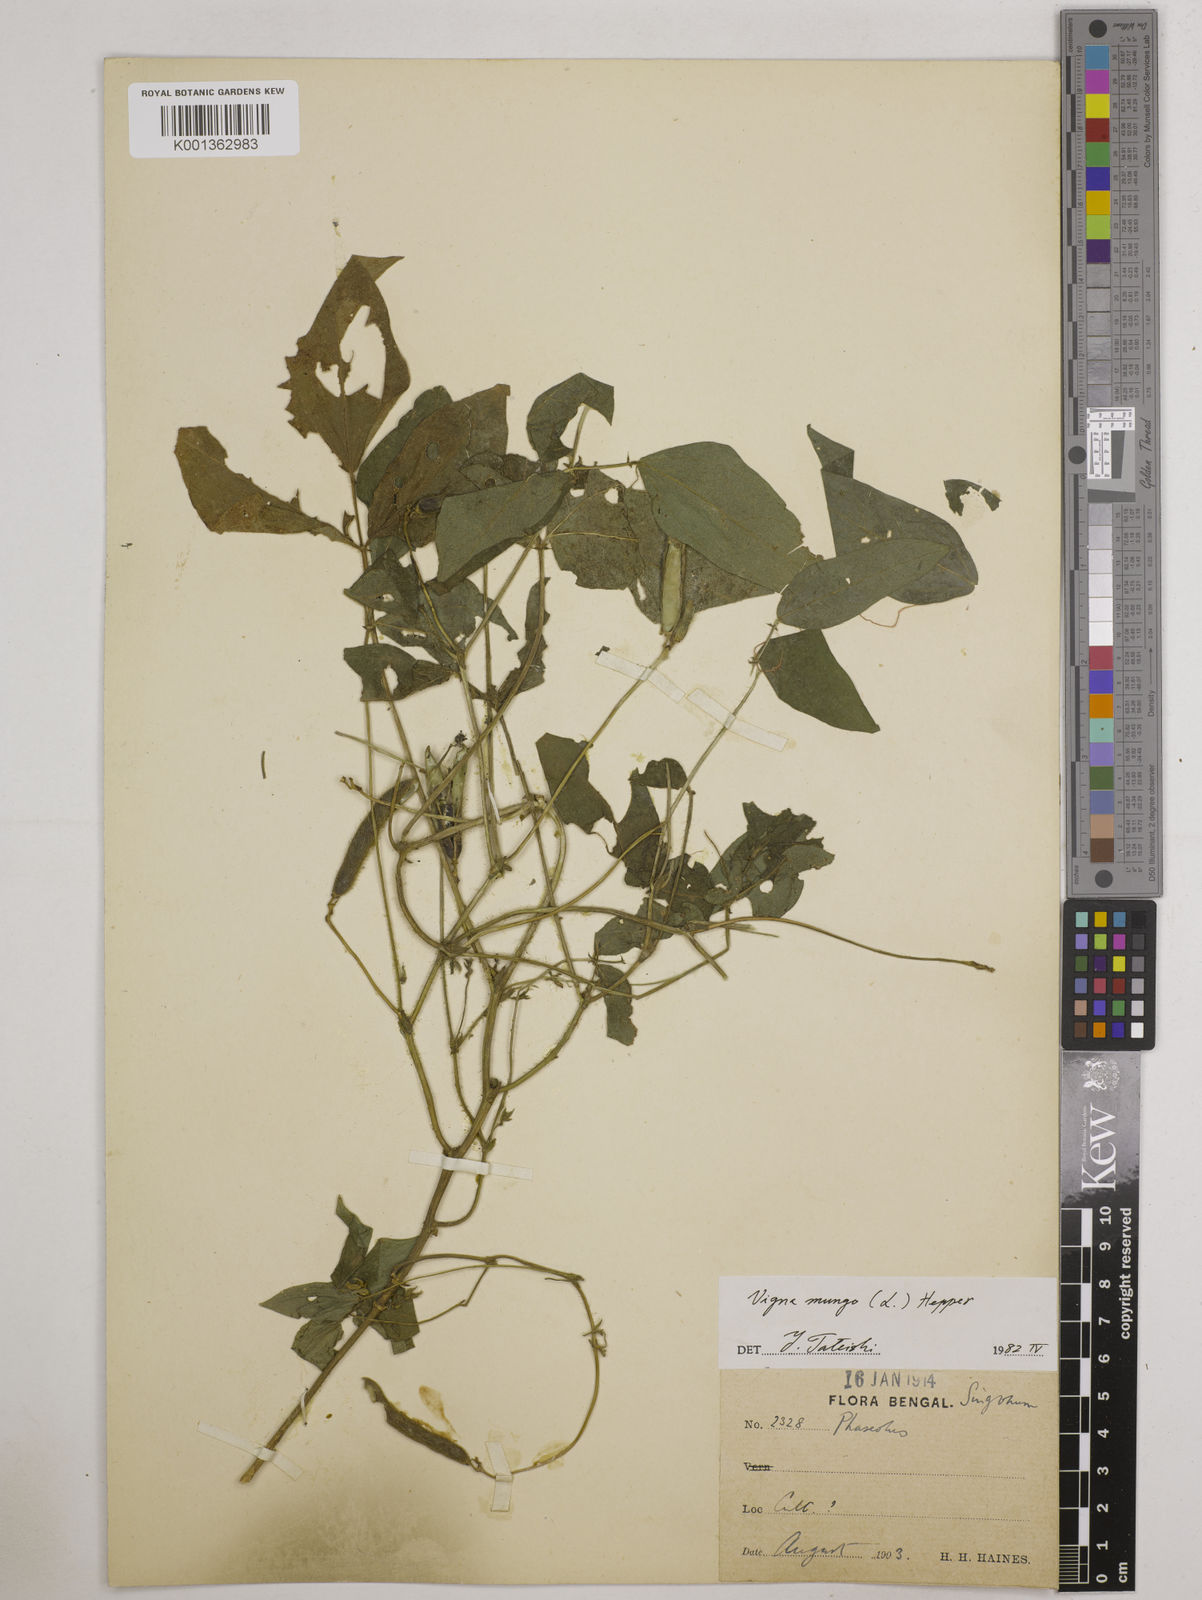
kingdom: Plantae
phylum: Tracheophyta
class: Magnoliopsida
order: Fabales
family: Fabaceae
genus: Vigna
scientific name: Vigna mungo
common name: Black gram
